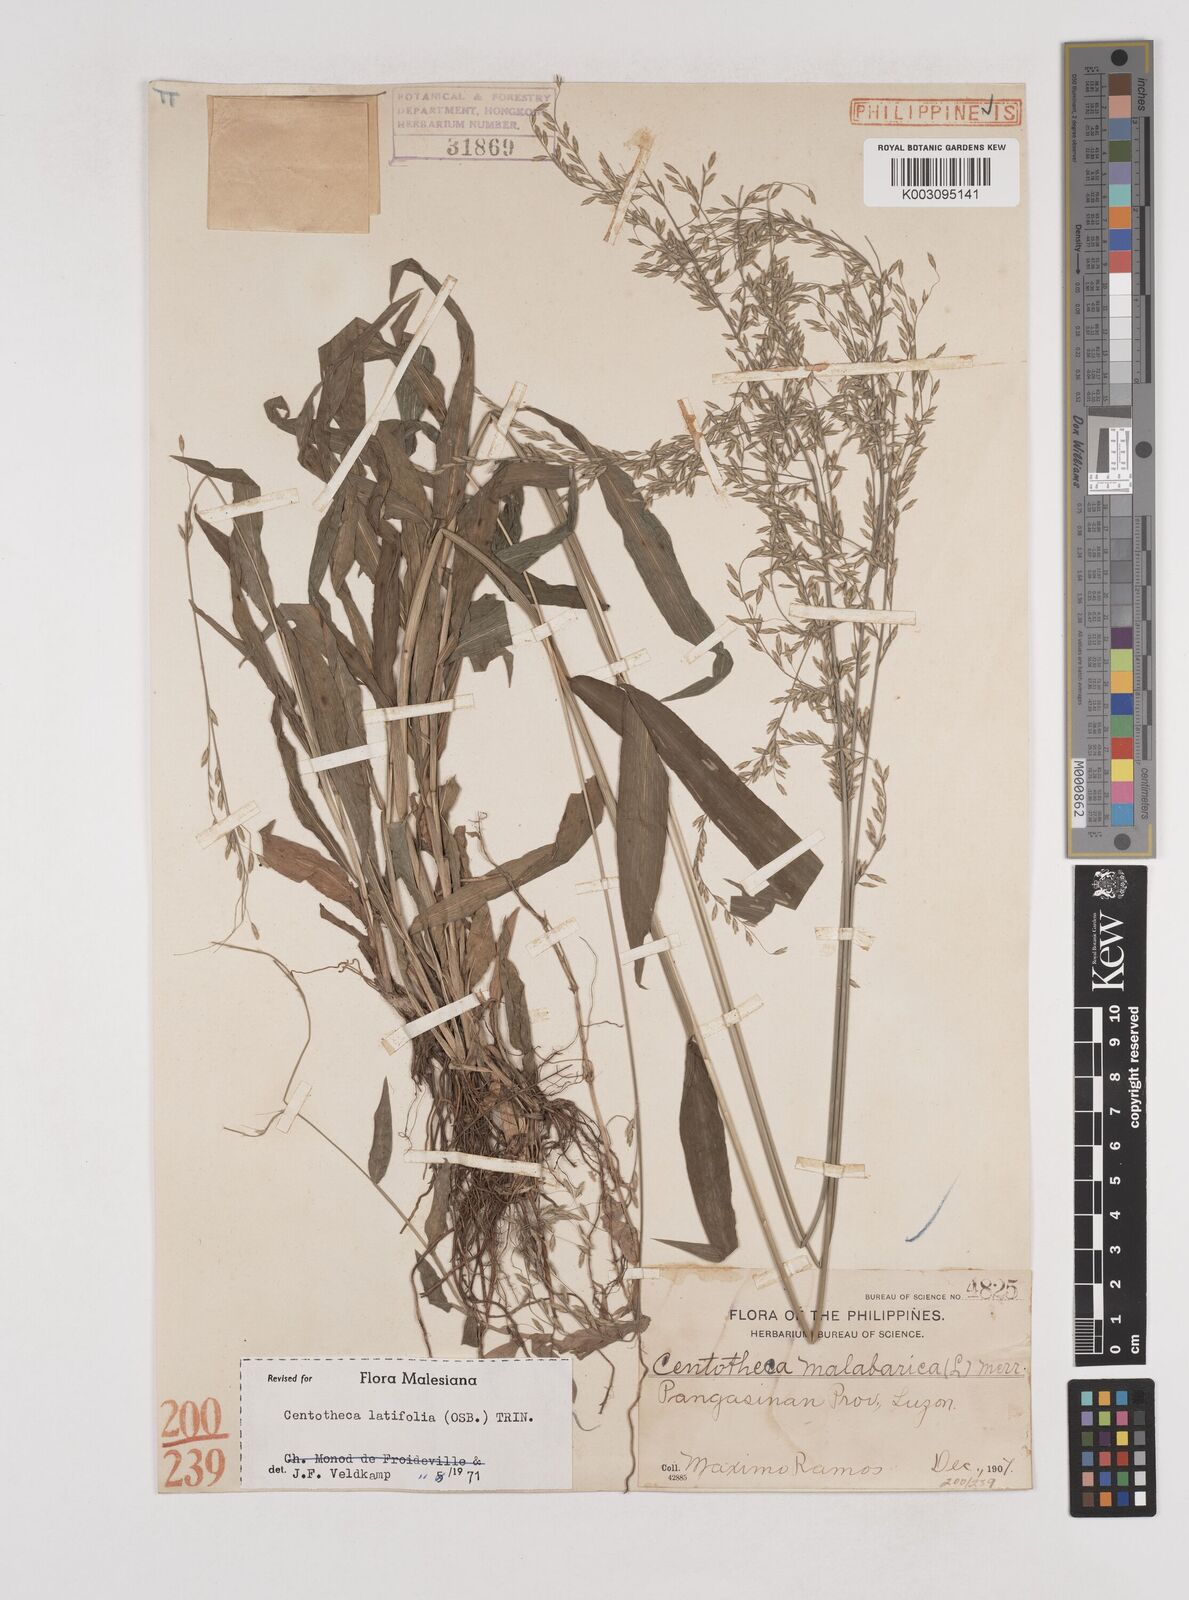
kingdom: Plantae
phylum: Tracheophyta
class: Liliopsida
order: Poales
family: Poaceae
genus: Centotheca
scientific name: Centotheca lappacea
